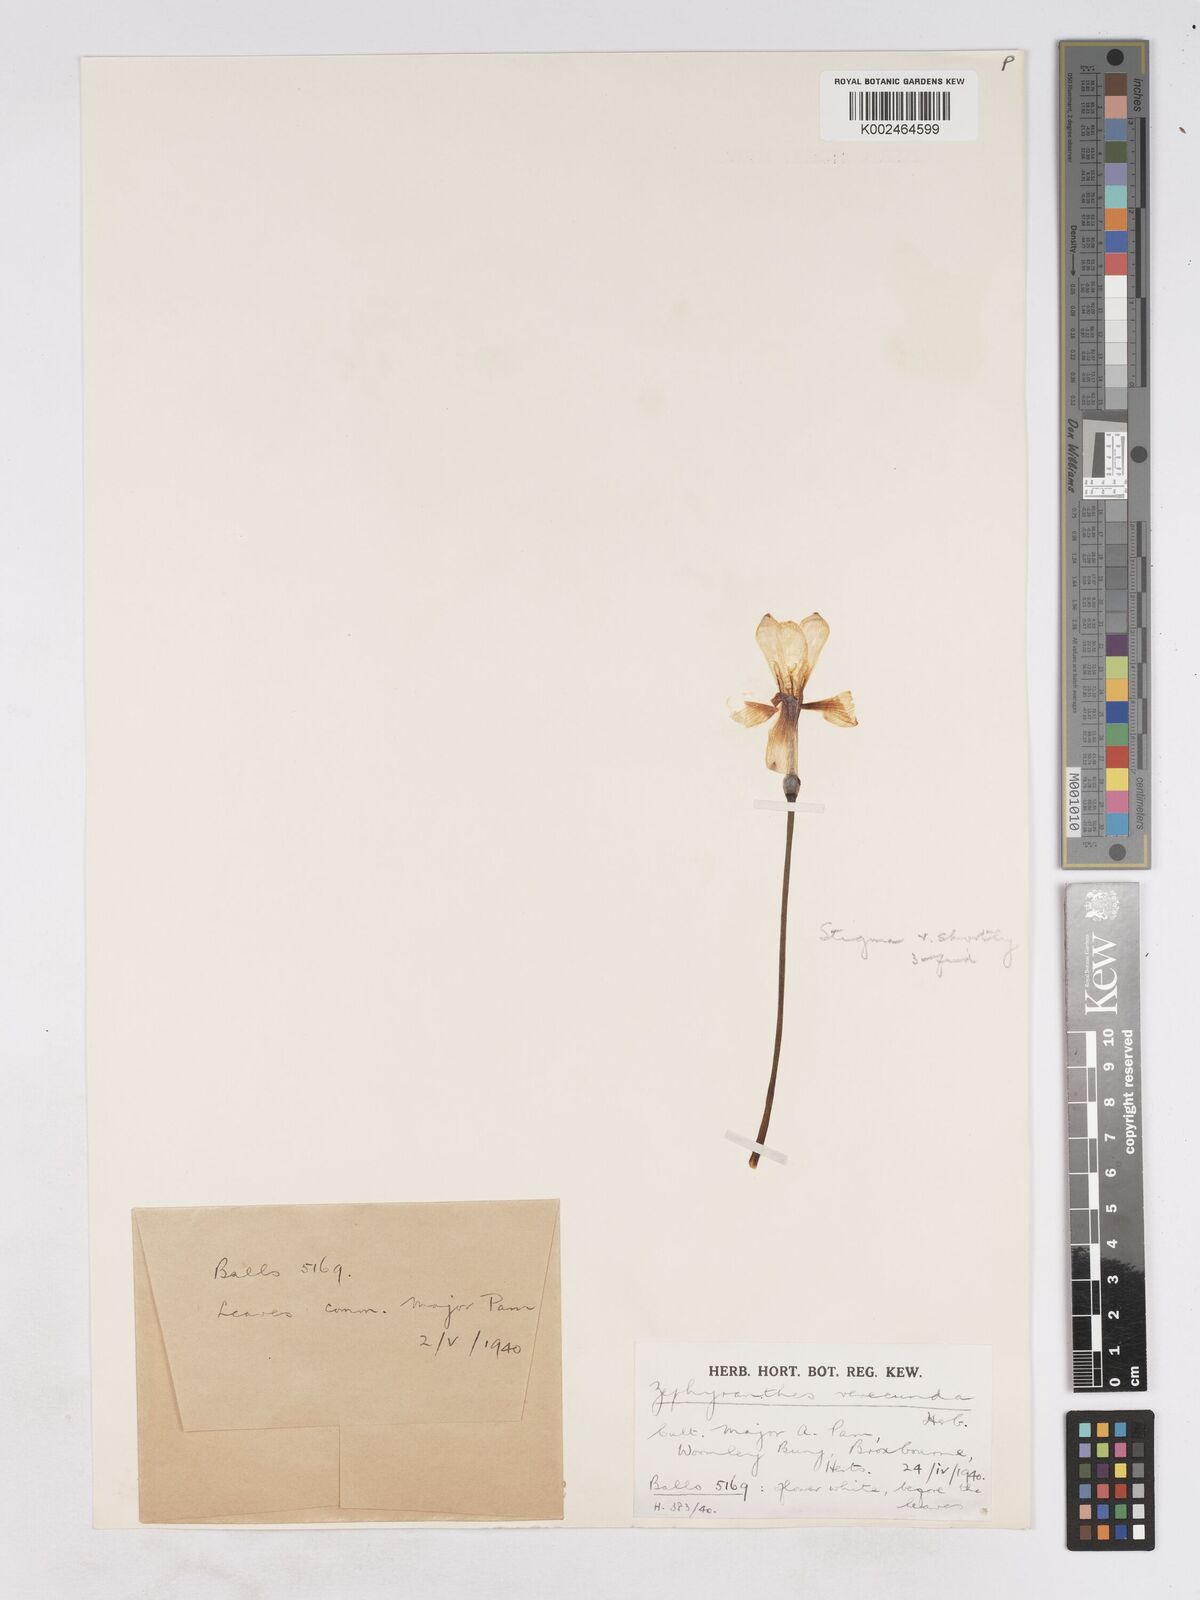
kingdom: Plantae
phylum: Tracheophyta
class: Liliopsida
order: Asparagales
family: Amaryllidaceae
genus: Zephyranthes
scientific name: Zephyranthes minuta
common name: Pink rain lily
